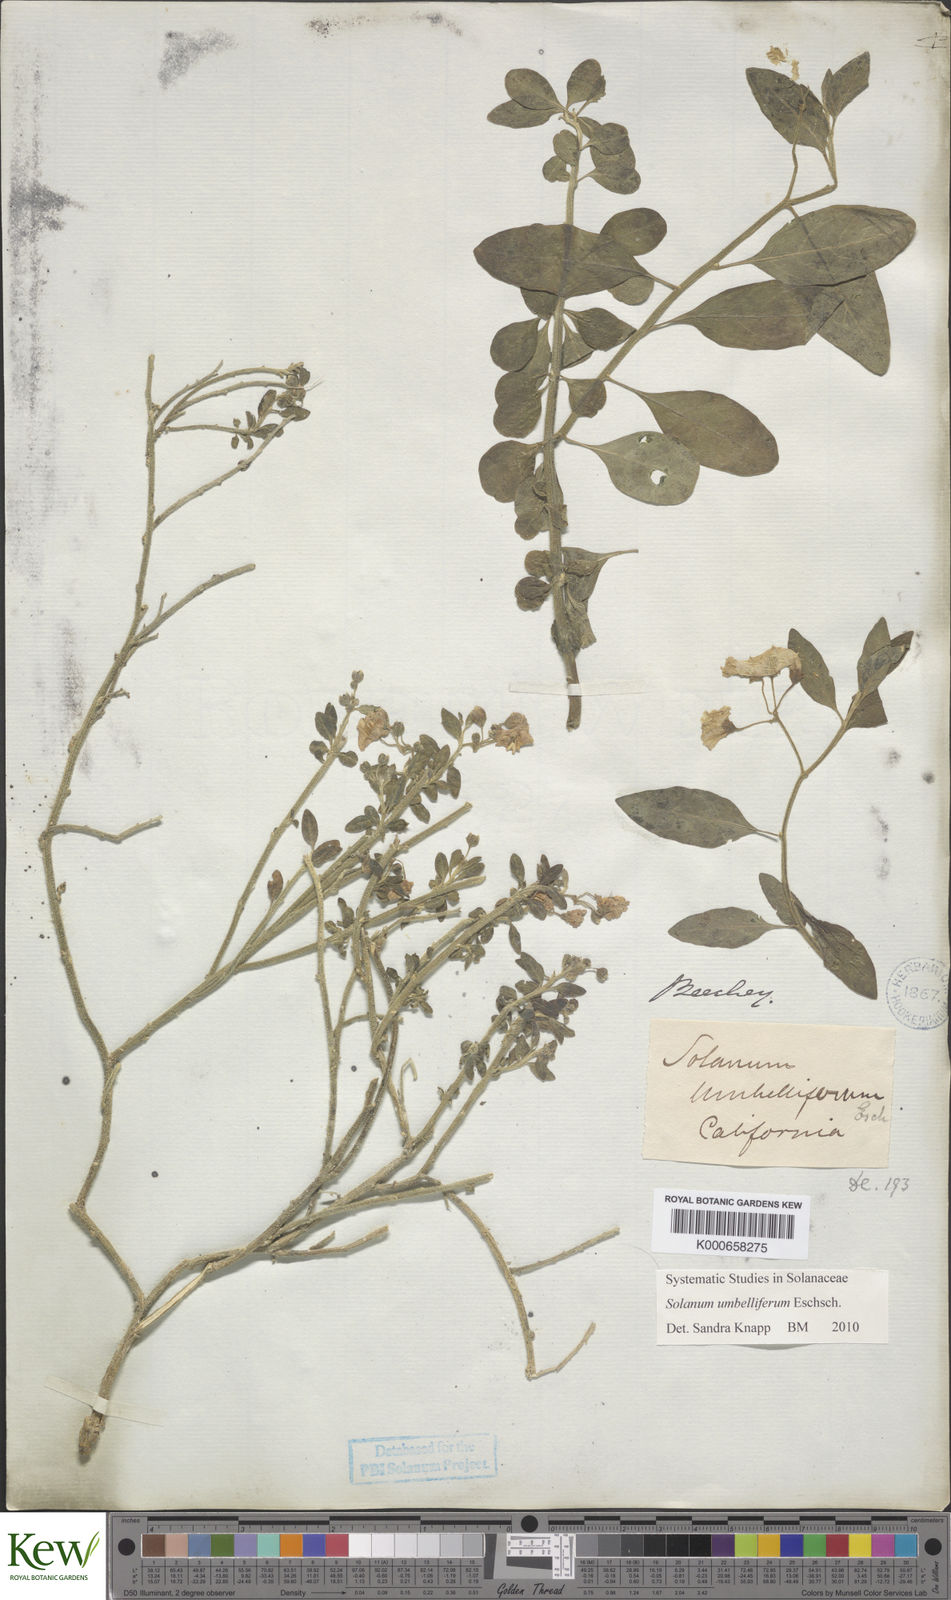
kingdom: Plantae
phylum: Tracheophyta
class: Magnoliopsida
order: Solanales
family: Solanaceae
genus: Solanum
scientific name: Solanum umbelliferum
